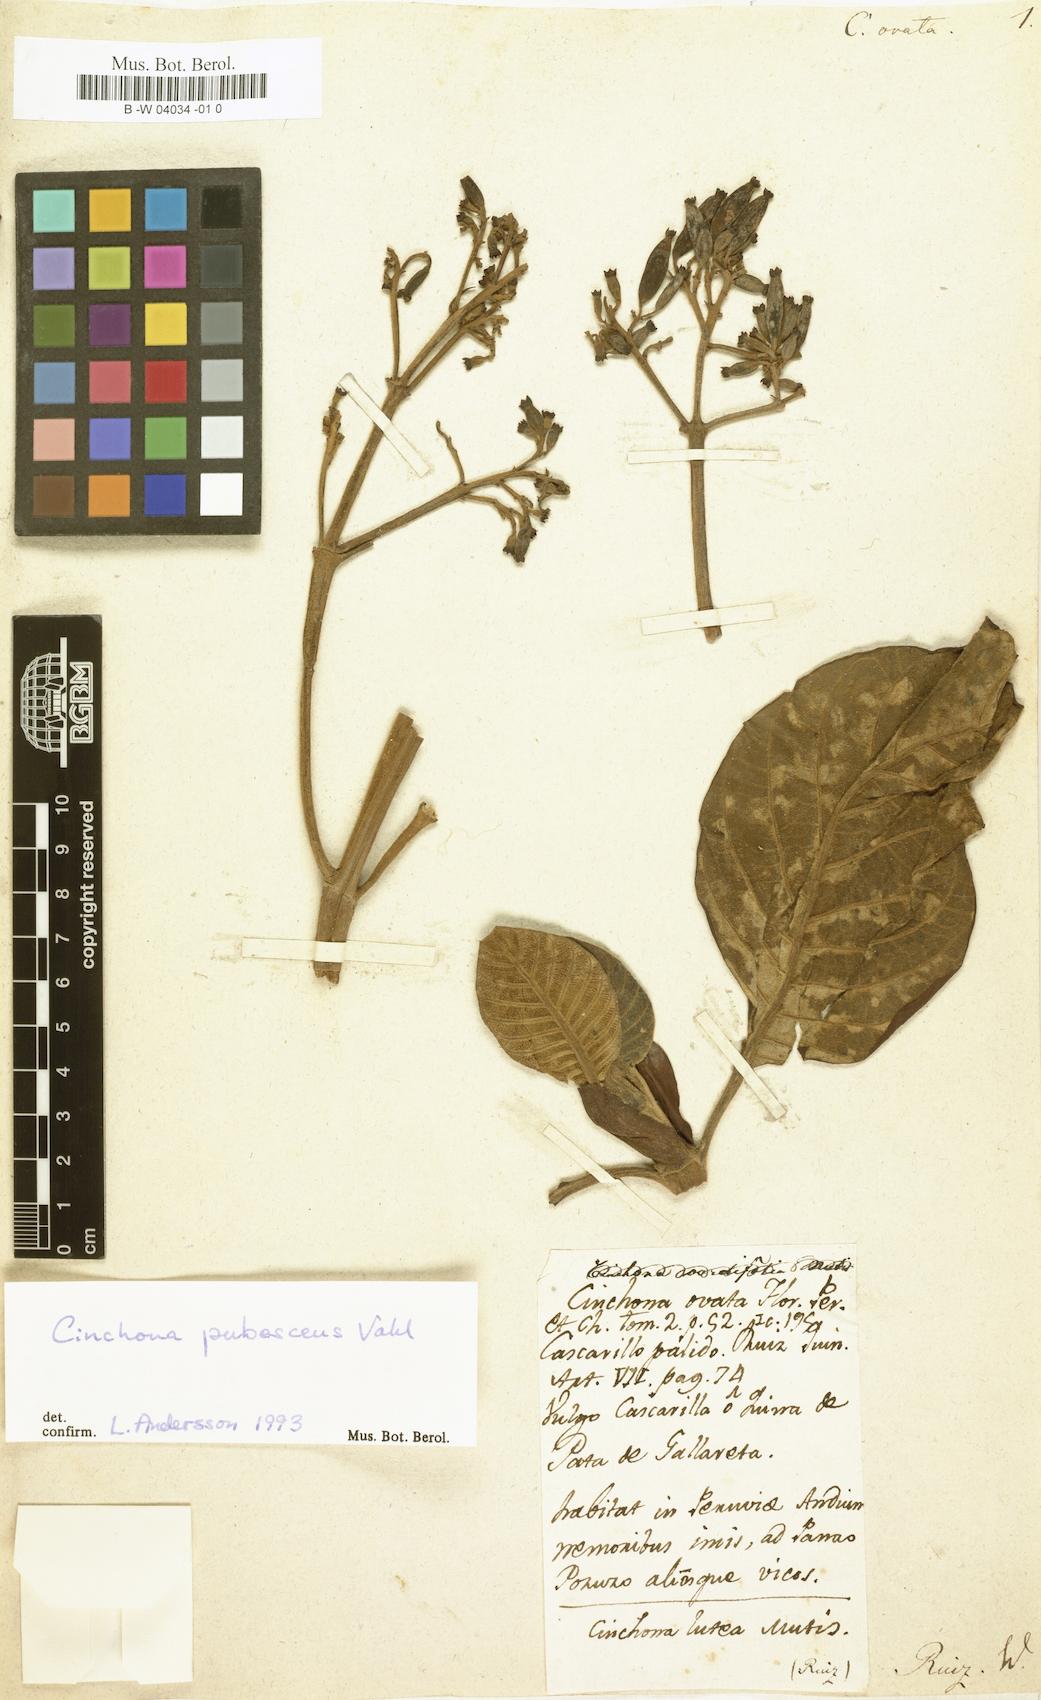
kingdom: Plantae
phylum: Tracheophyta
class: Magnoliopsida
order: Gentianales
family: Rubiaceae
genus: Cinchona
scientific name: Cinchona pubescens
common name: Quinine
